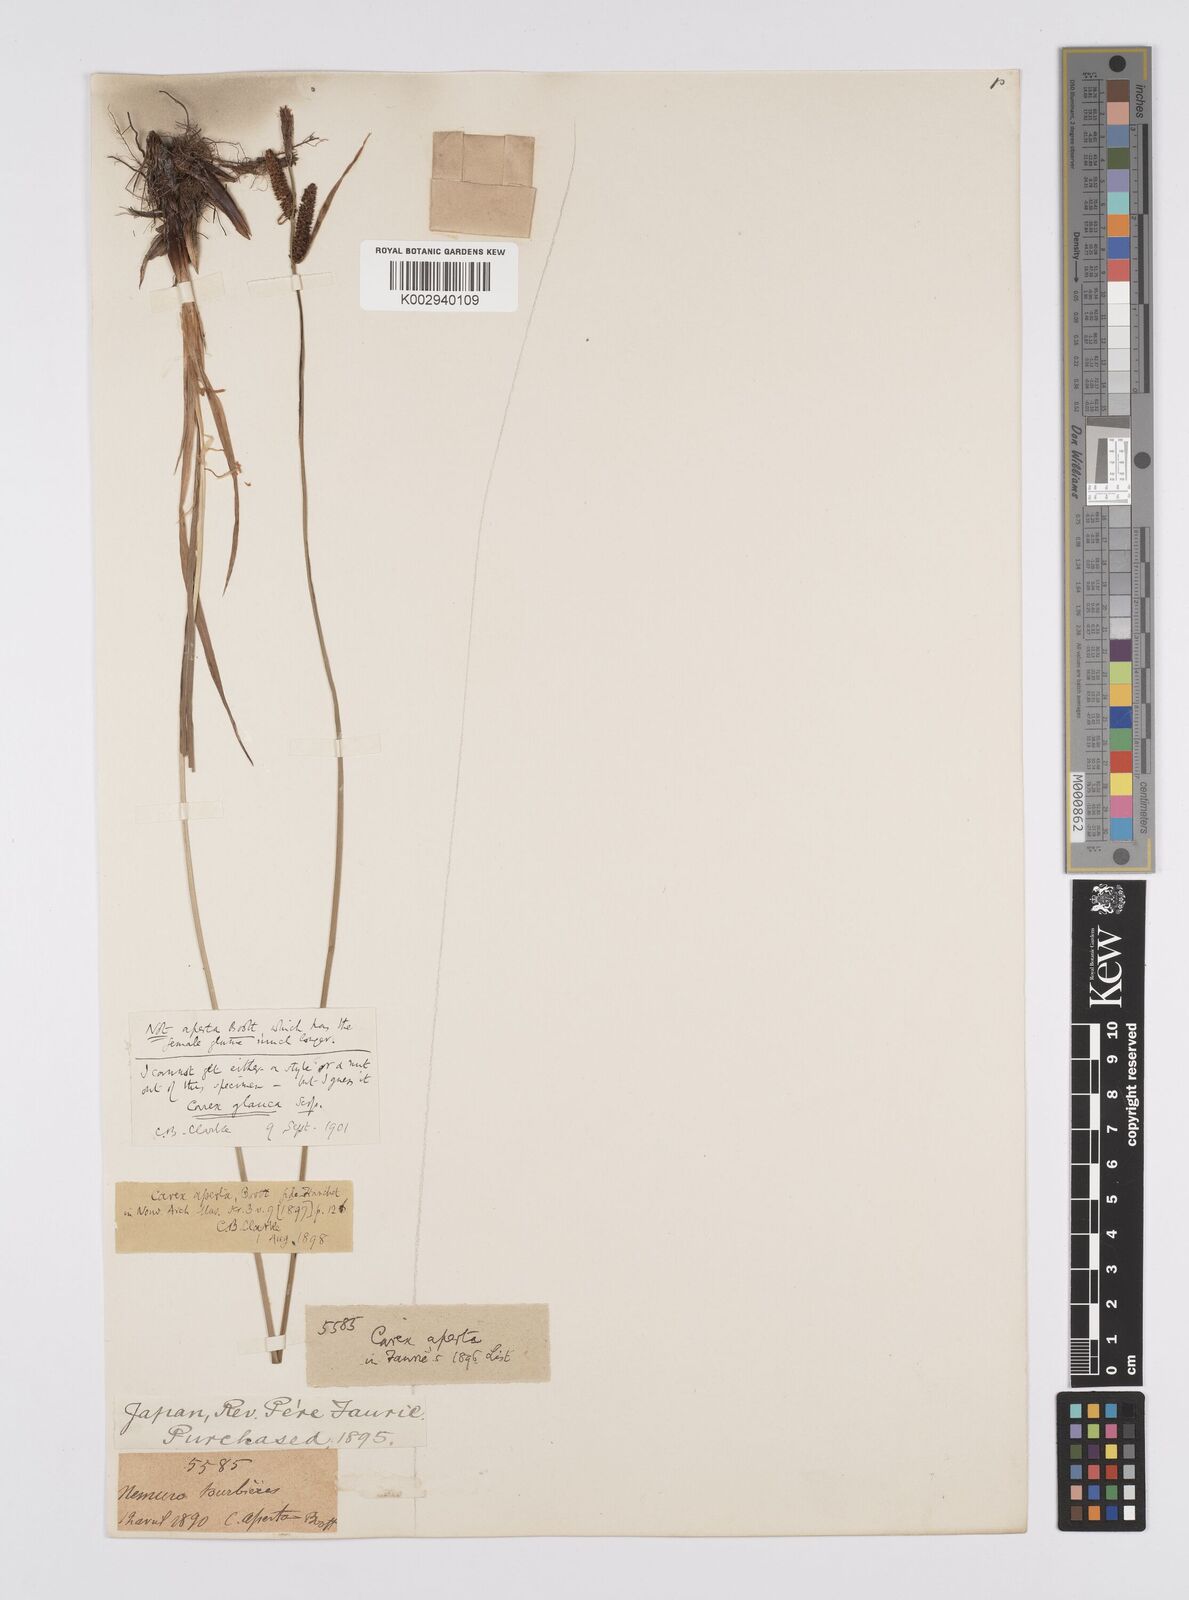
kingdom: Plantae
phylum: Tracheophyta
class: Liliopsida
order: Poales
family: Cyperaceae
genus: Carex
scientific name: Carex aperta
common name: Columbia sedge
